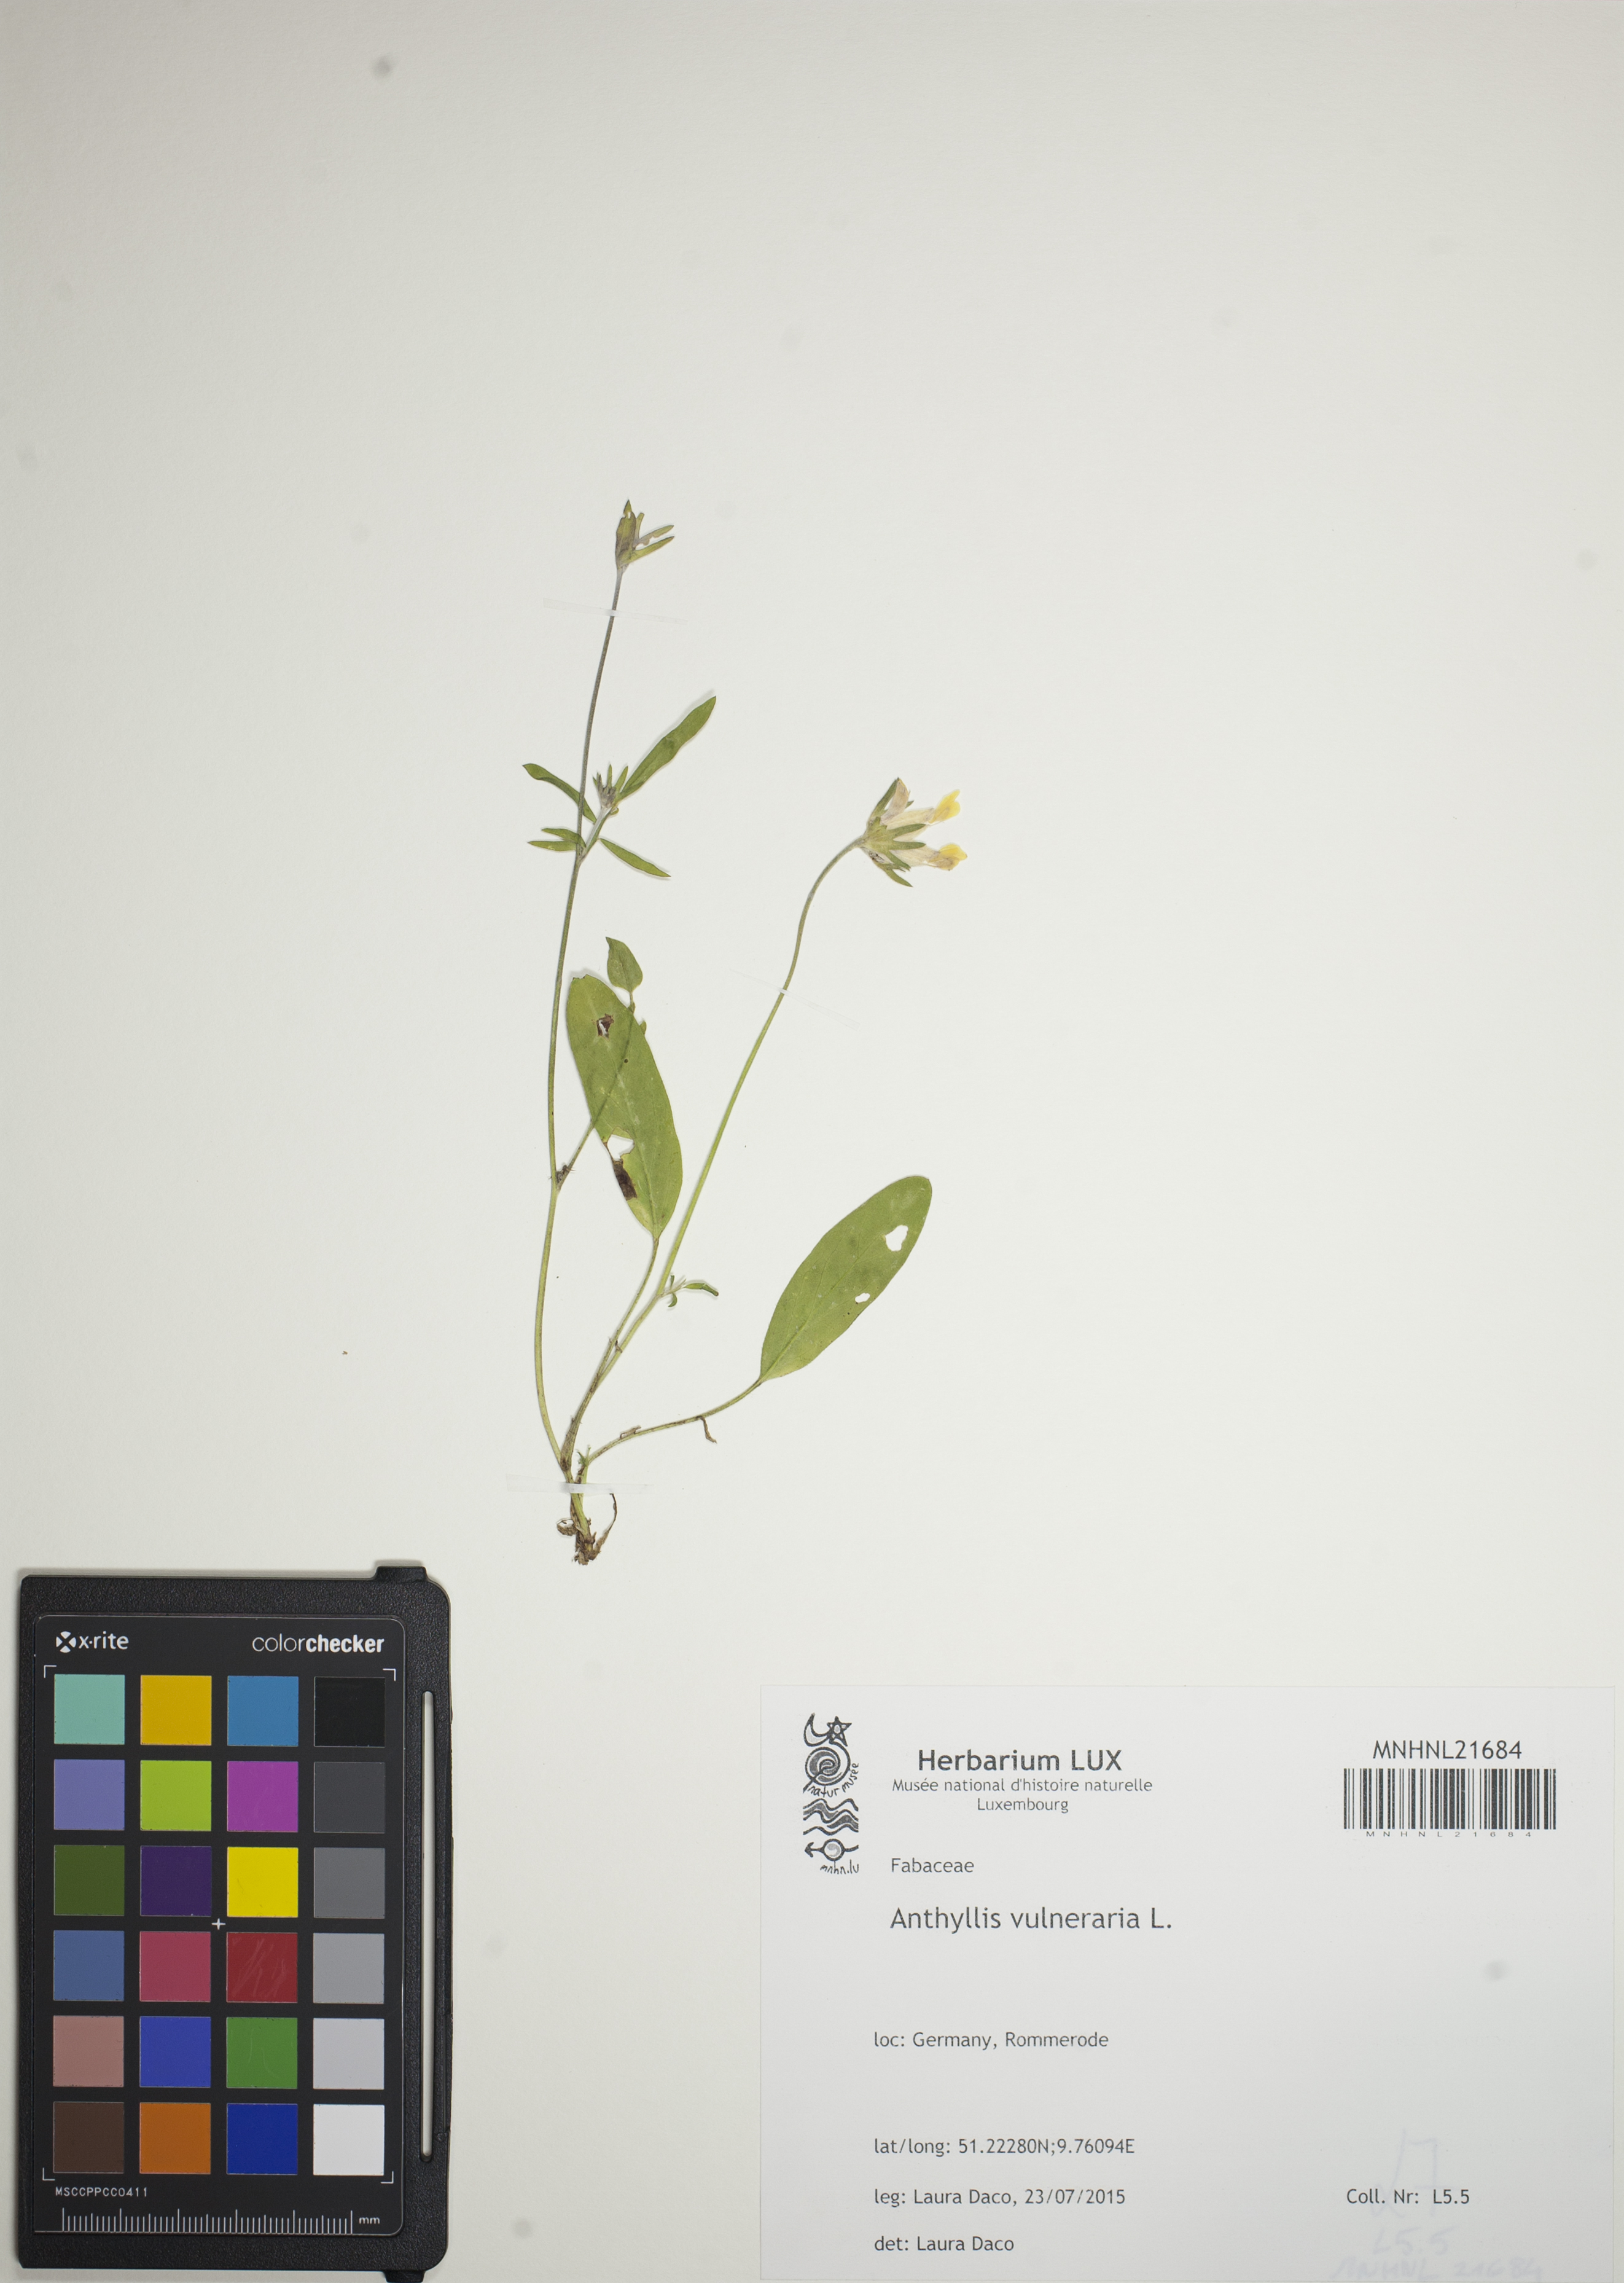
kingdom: Plantae
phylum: Tracheophyta
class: Magnoliopsida
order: Fabales
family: Fabaceae
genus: Anthyllis
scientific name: Anthyllis vulneraria
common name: Kidney vetch
